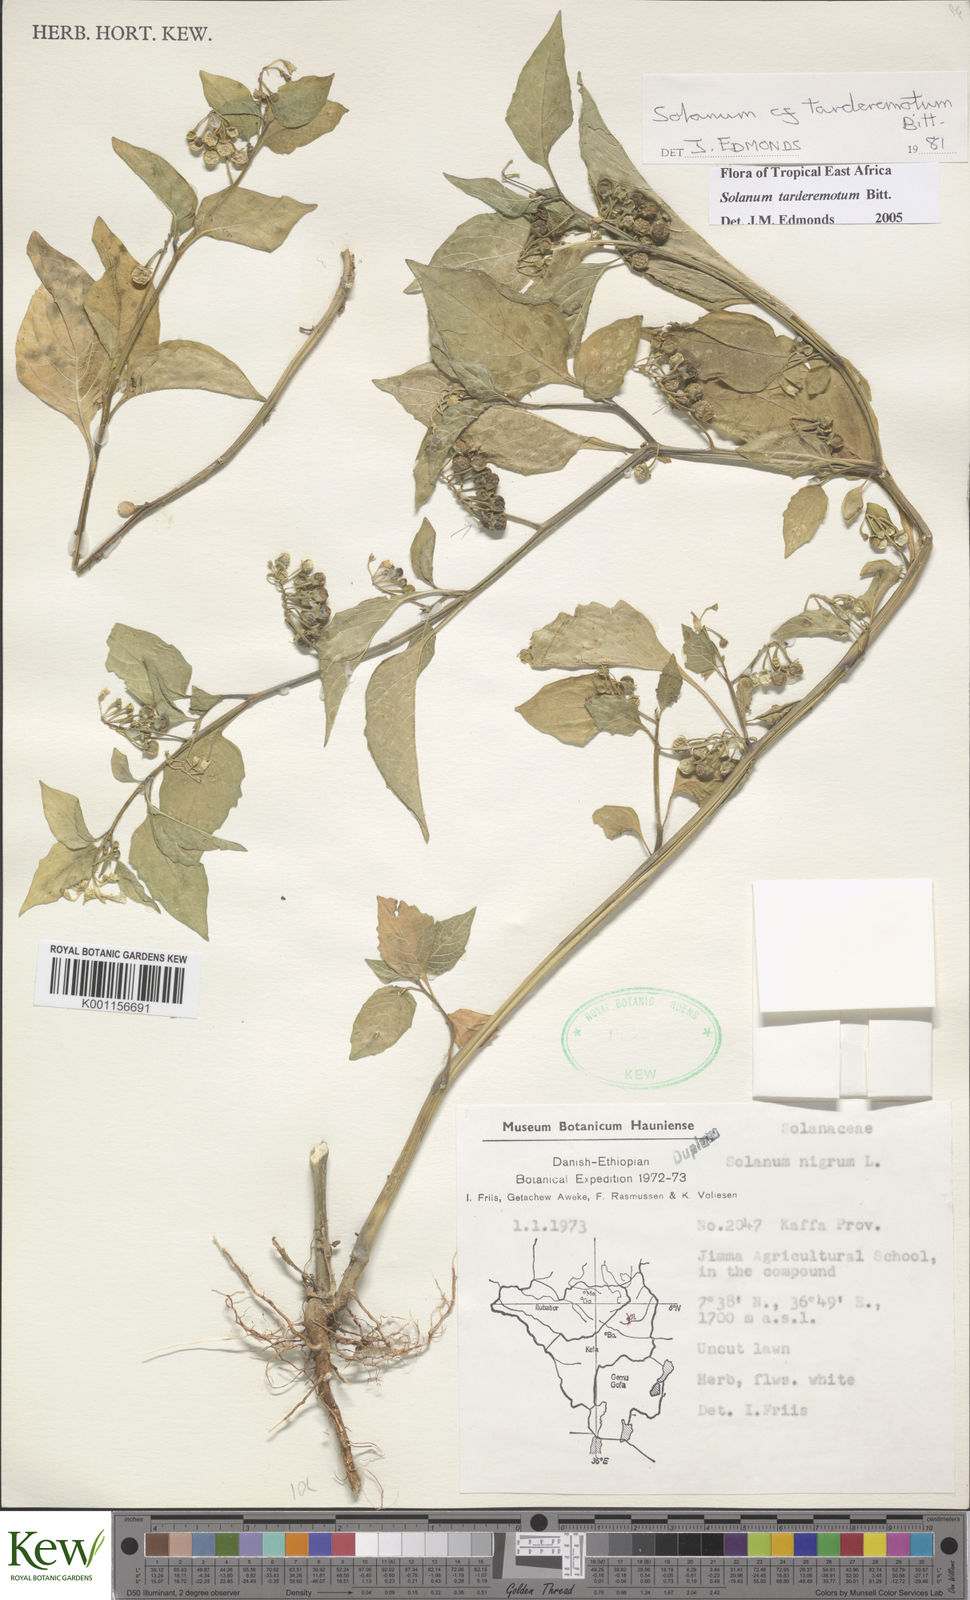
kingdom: Plantae
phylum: Tracheophyta
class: Magnoliopsida
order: Solanales
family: Solanaceae
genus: Solanum
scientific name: Solanum tarderemotum
